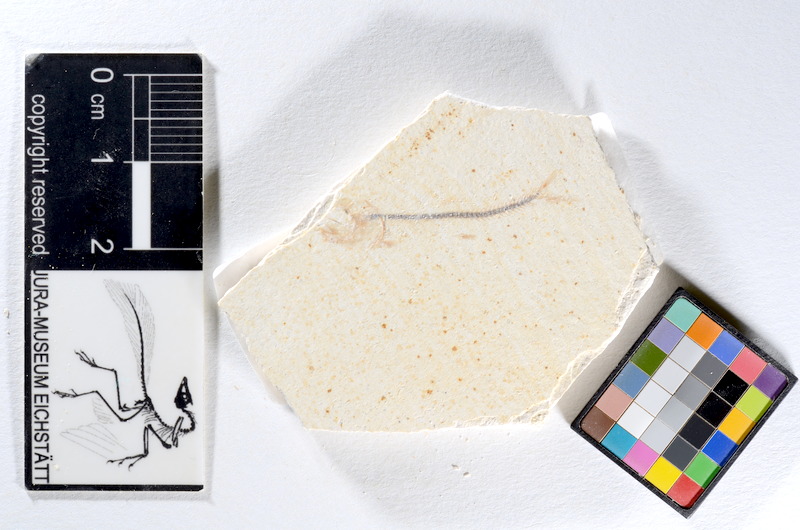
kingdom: Animalia
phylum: Chordata
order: Salmoniformes
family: Orthogonikleithridae
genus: Orthogonikleithrus
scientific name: Orthogonikleithrus hoelli
